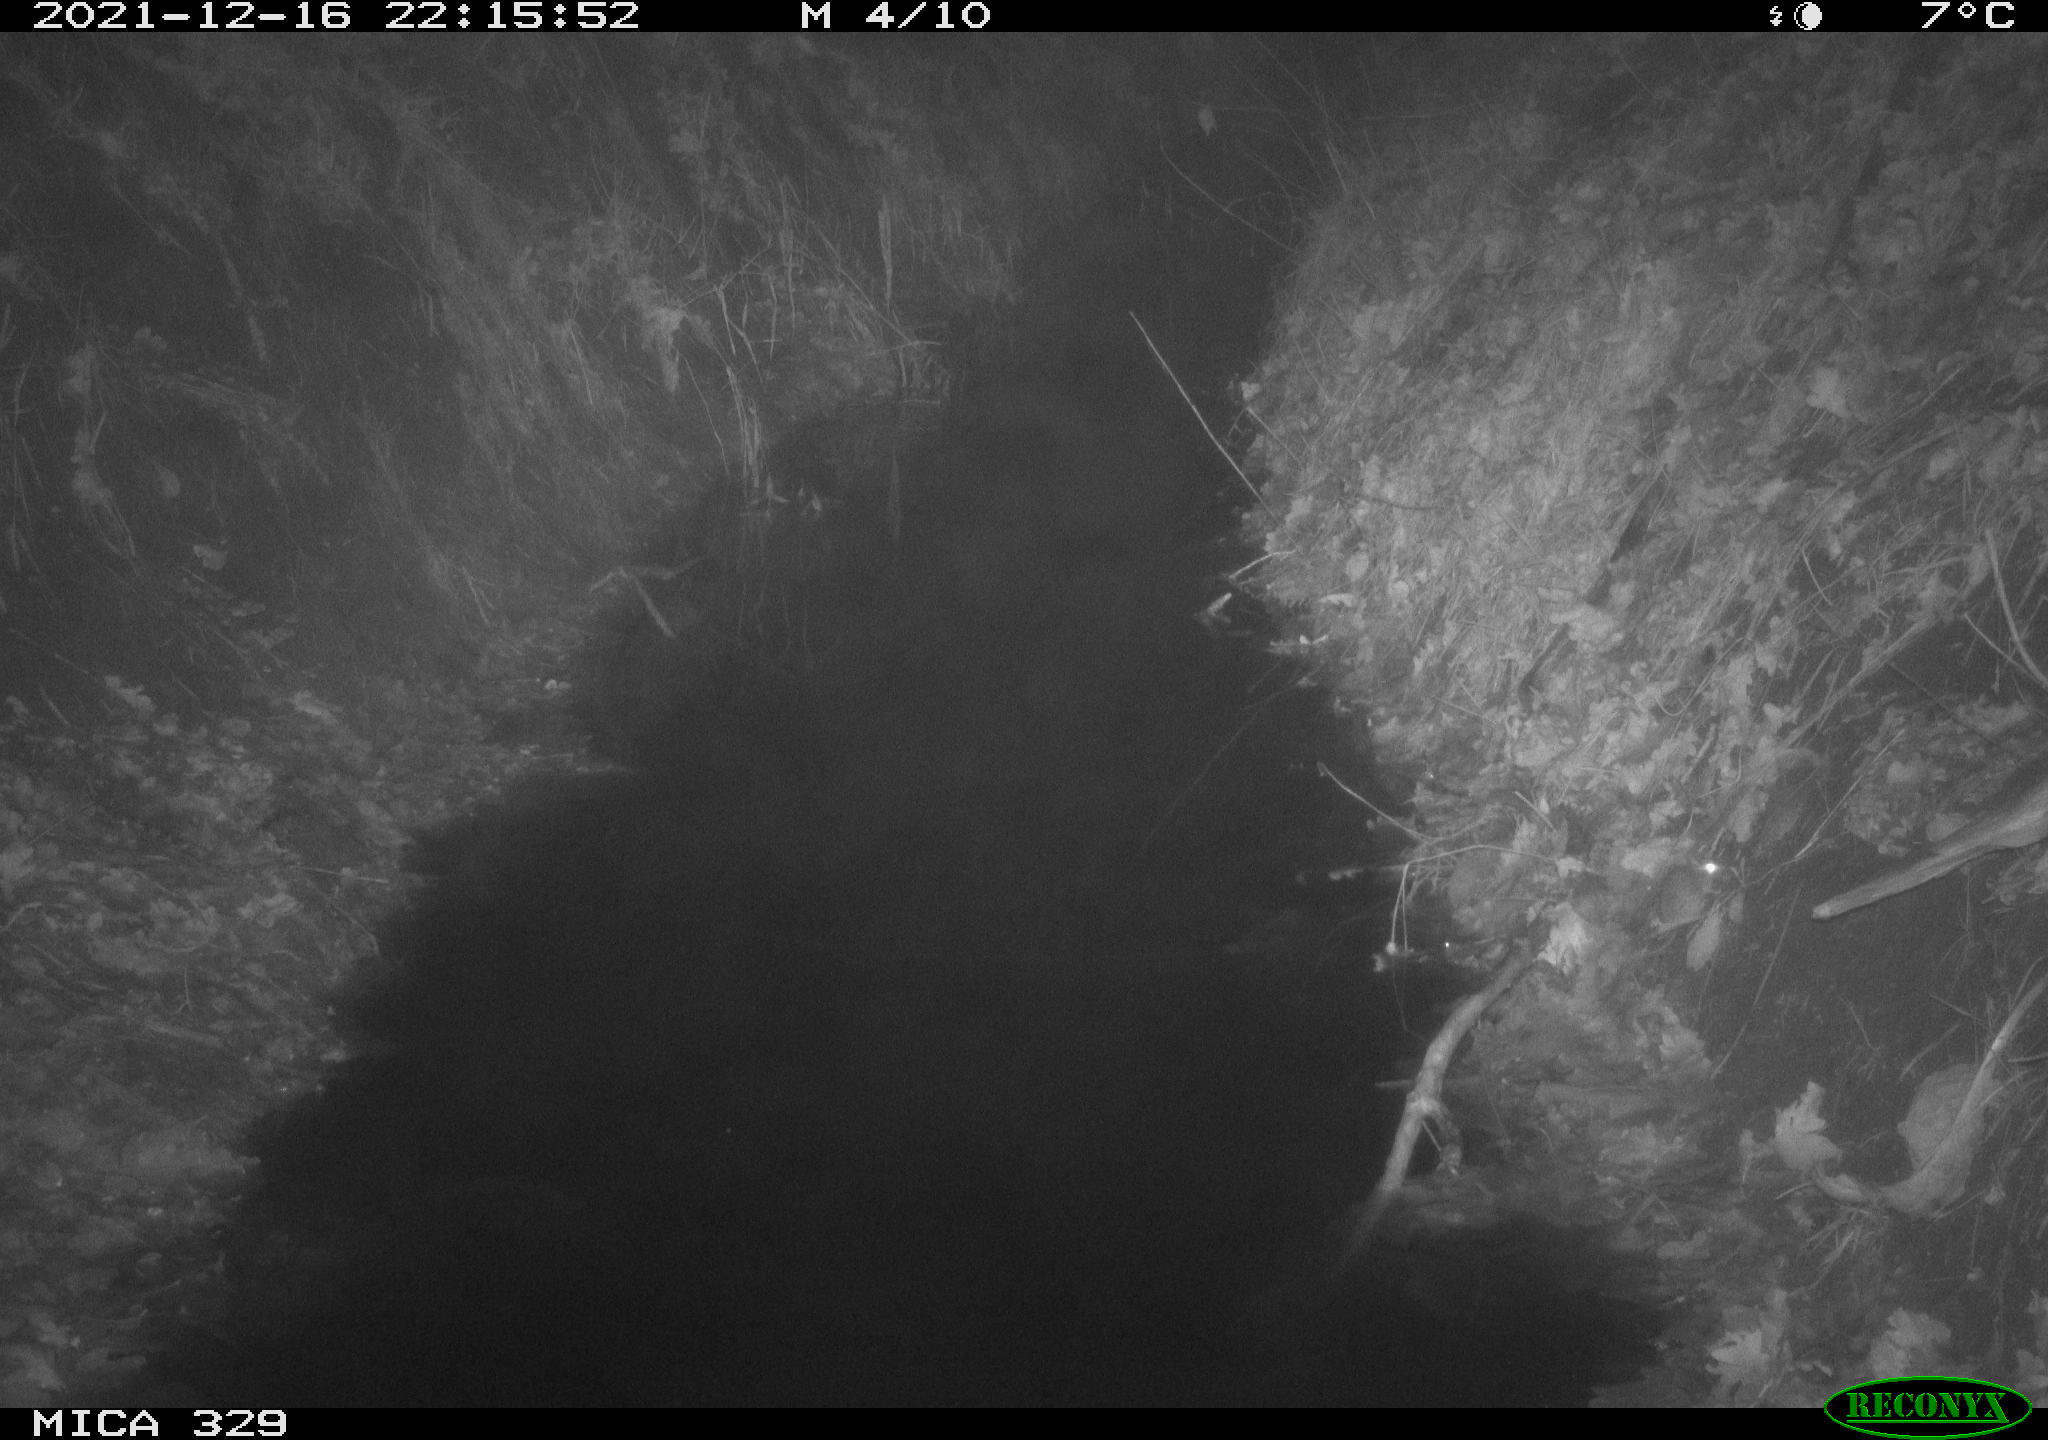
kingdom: Animalia
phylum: Chordata
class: Mammalia
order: Rodentia
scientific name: Rodentia
